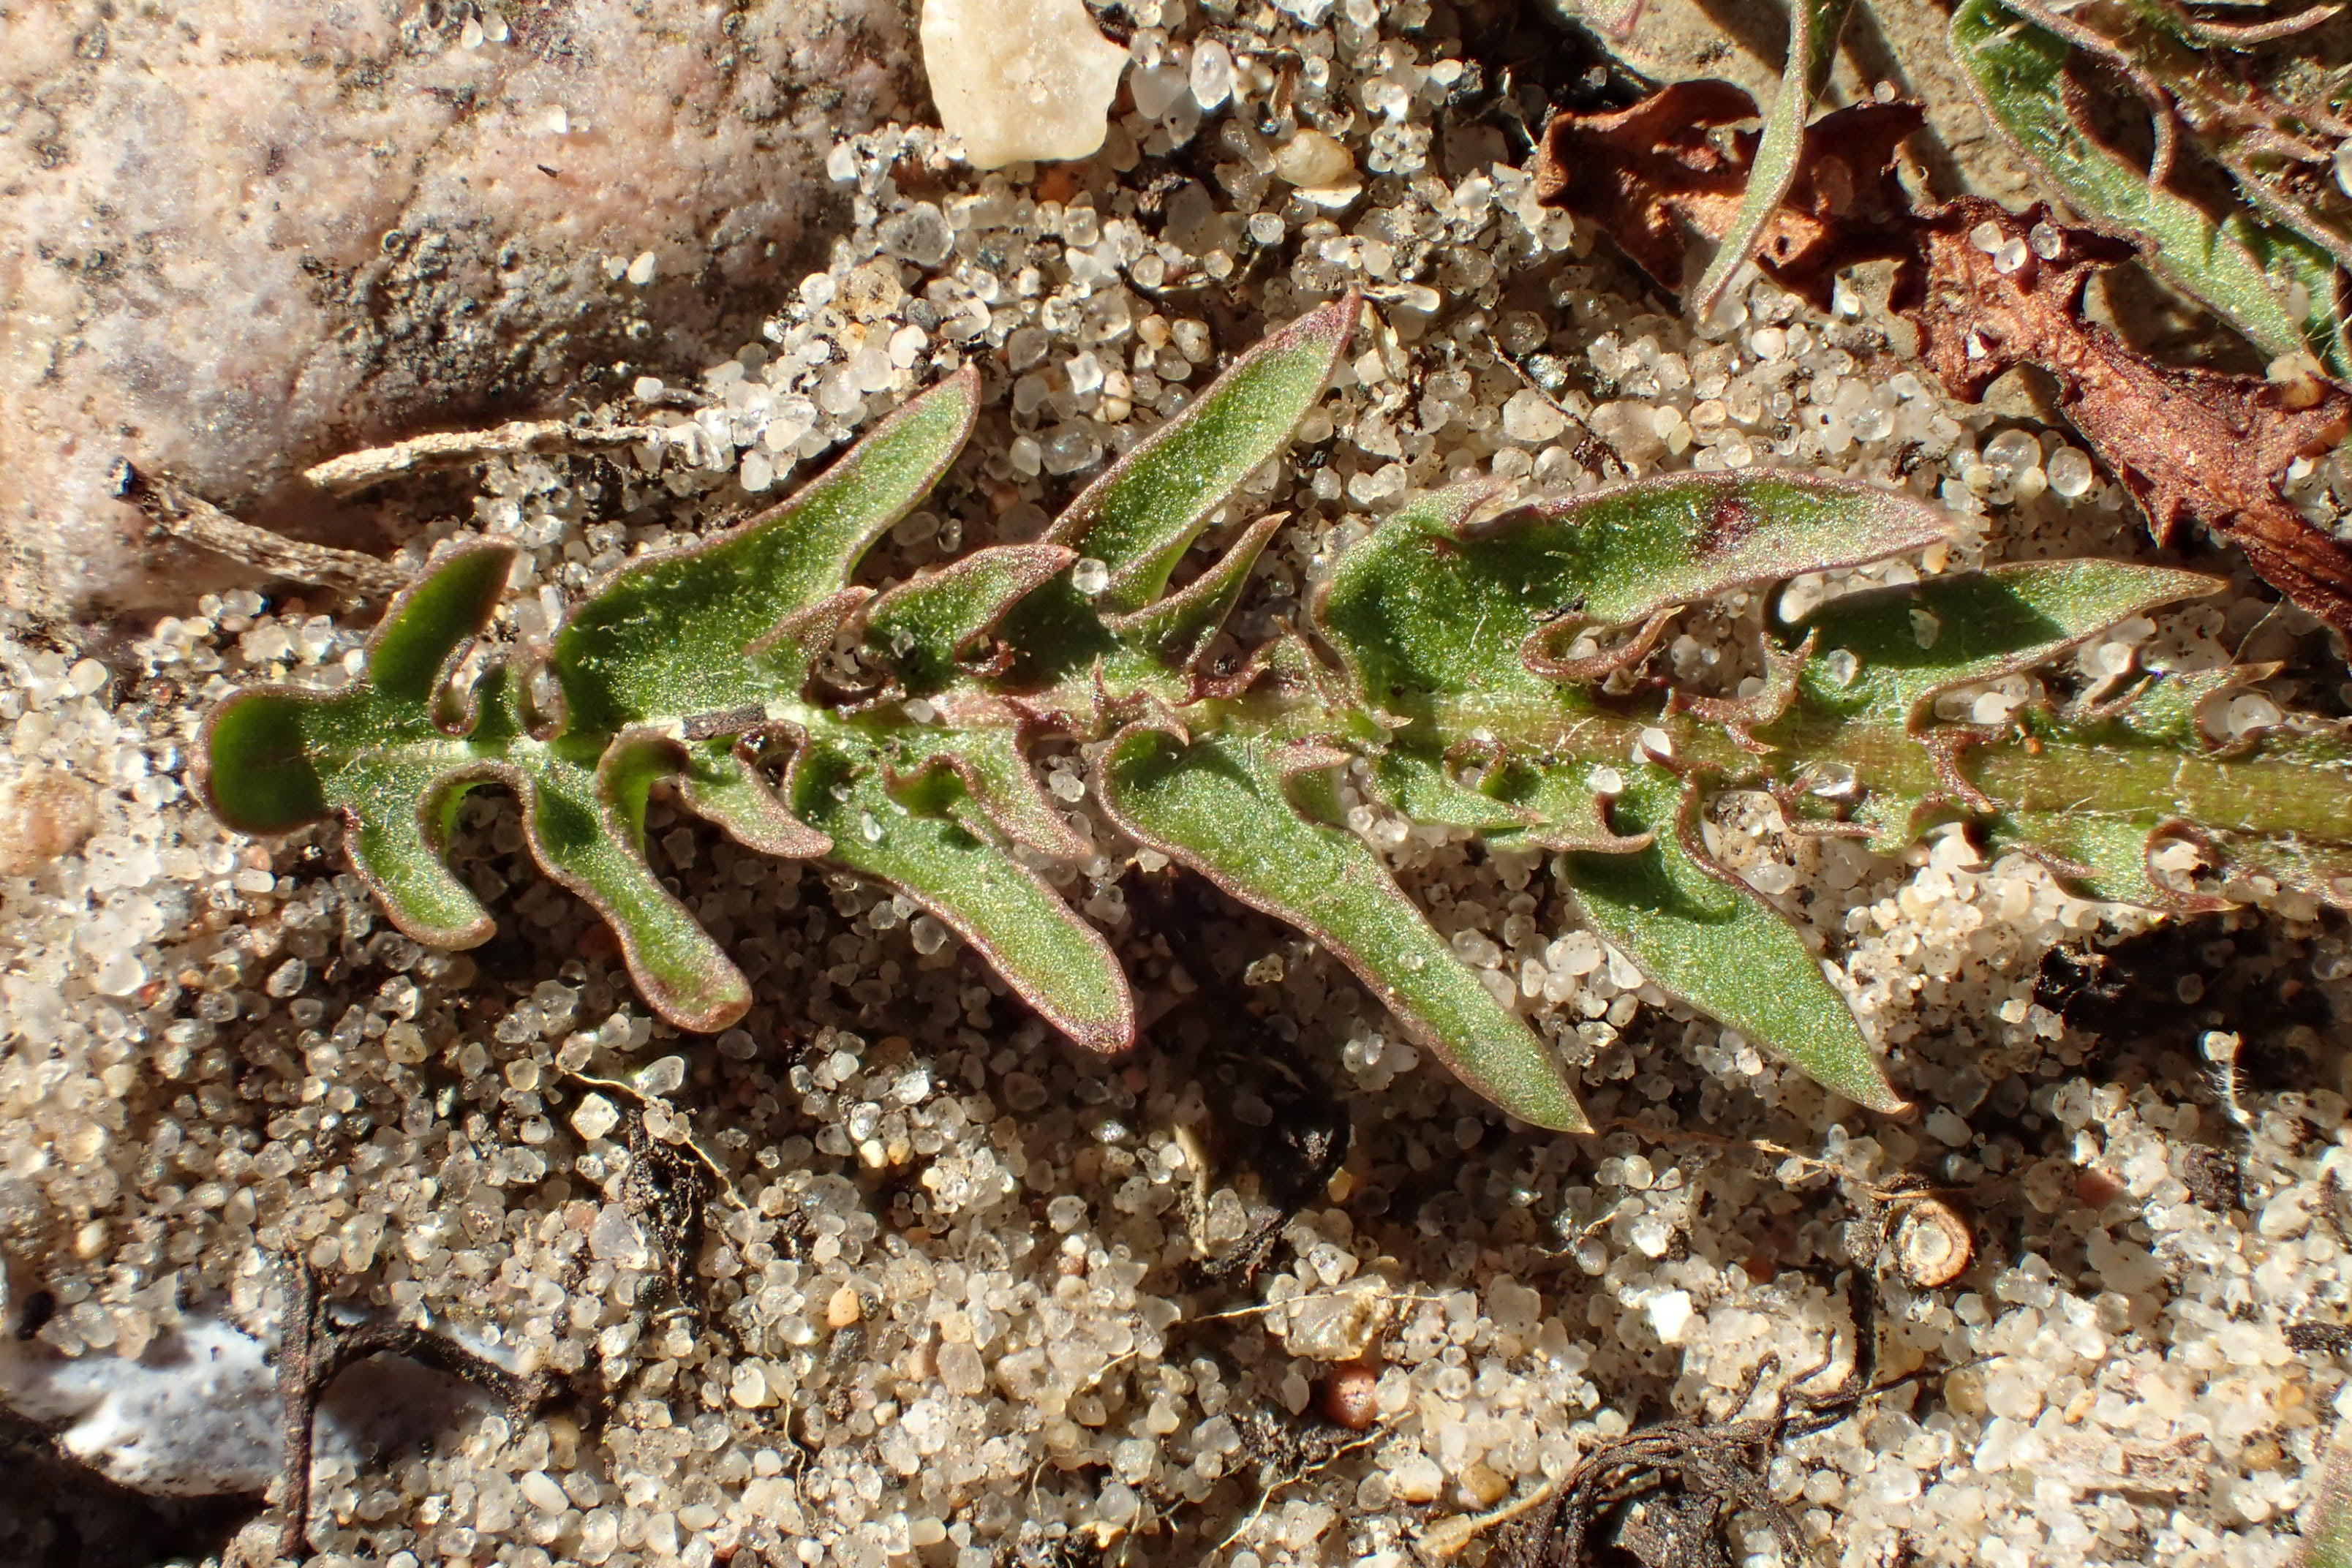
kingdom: Plantae
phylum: Tracheophyta
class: Magnoliopsida
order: Asterales
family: Asteraceae
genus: Taraxacum
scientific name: Taraxacum platyglossum
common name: Fladtunge-dværgmælkebøtte
